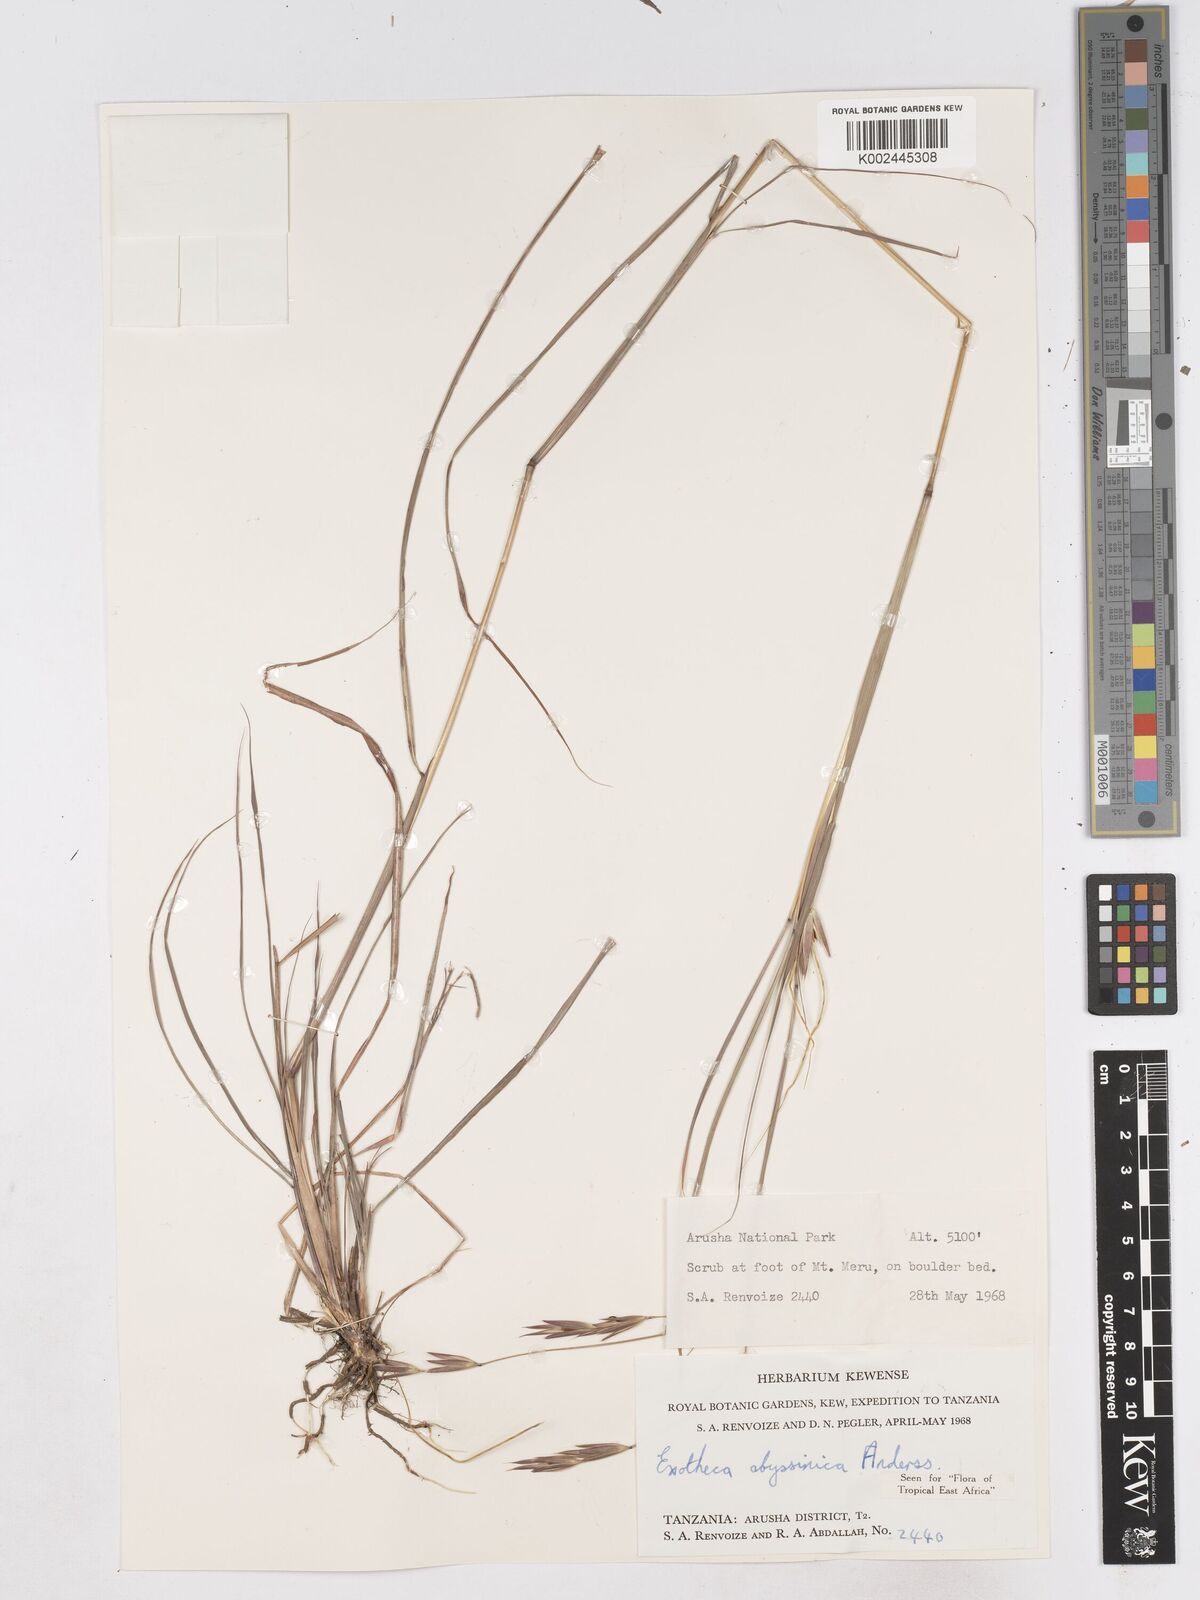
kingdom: Plantae
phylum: Tracheophyta
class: Liliopsida
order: Poales
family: Poaceae
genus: Exotheca
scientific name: Exotheca abyssinica
